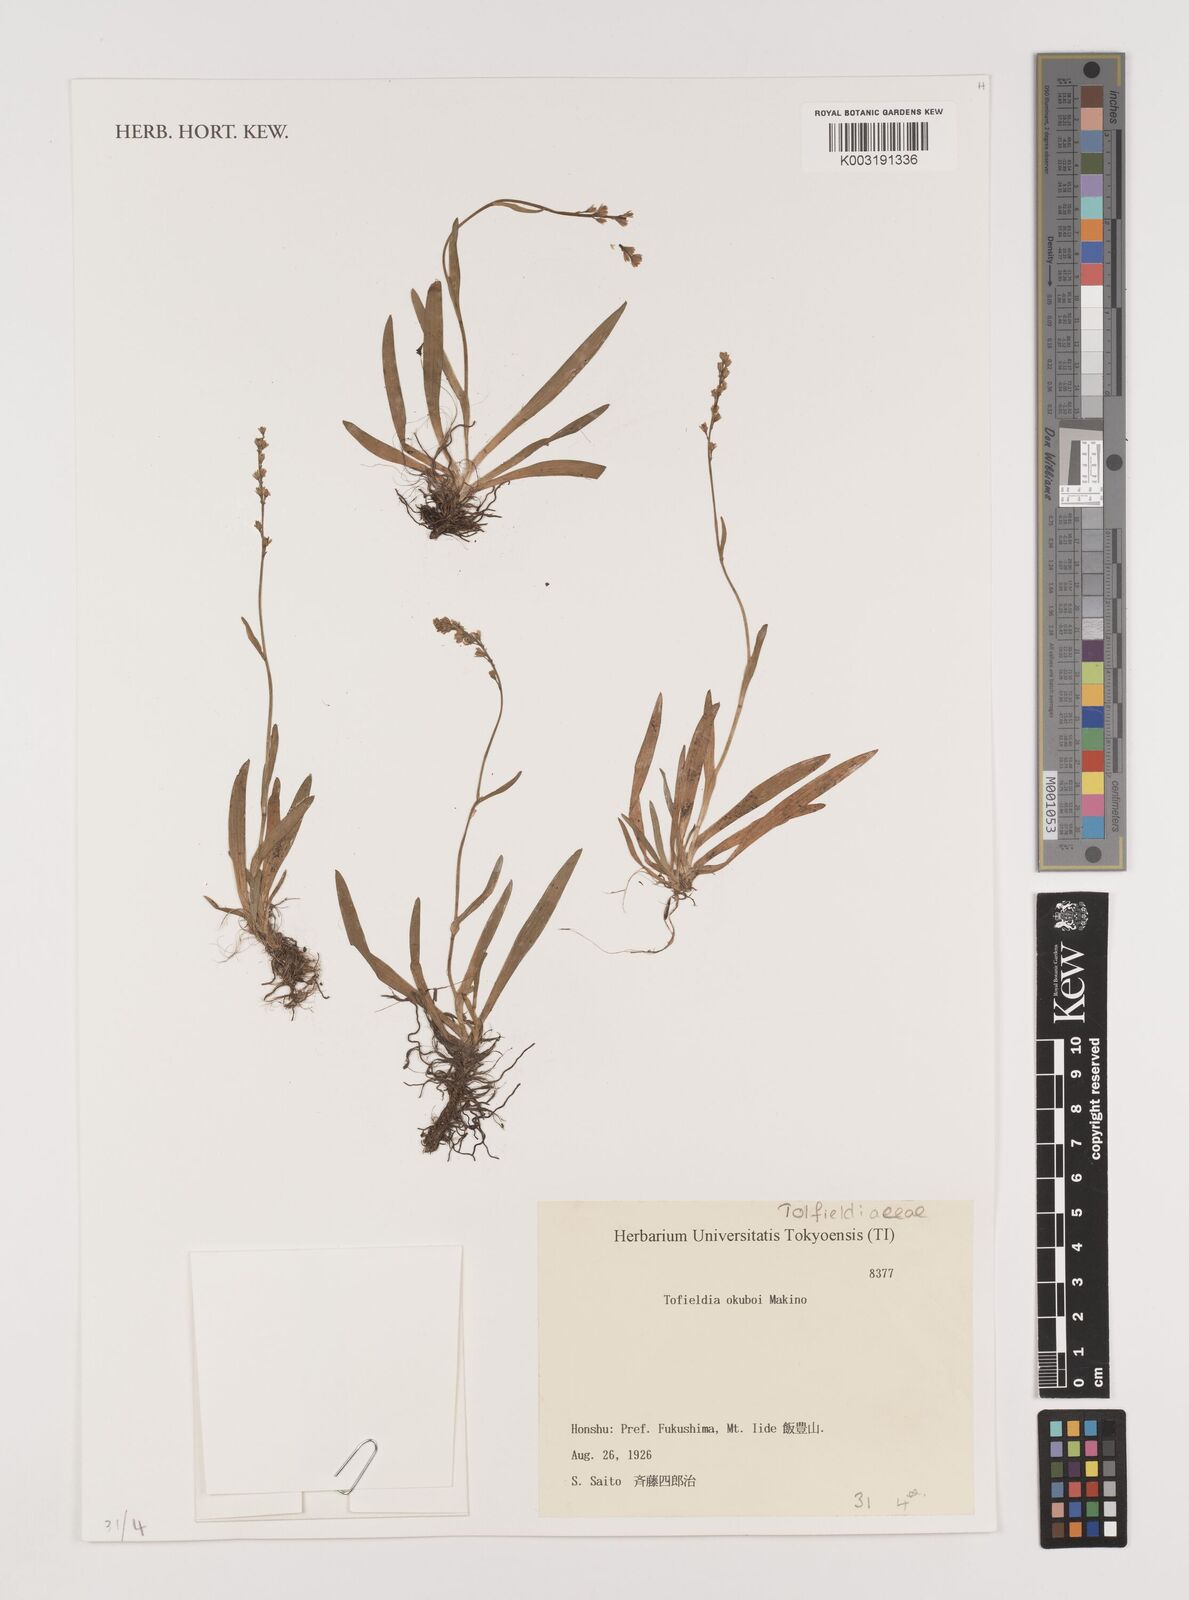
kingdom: Plantae
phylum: Tracheophyta
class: Liliopsida
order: Alismatales
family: Tofieldiaceae
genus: Tofieldia
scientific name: Tofieldia okuboi
